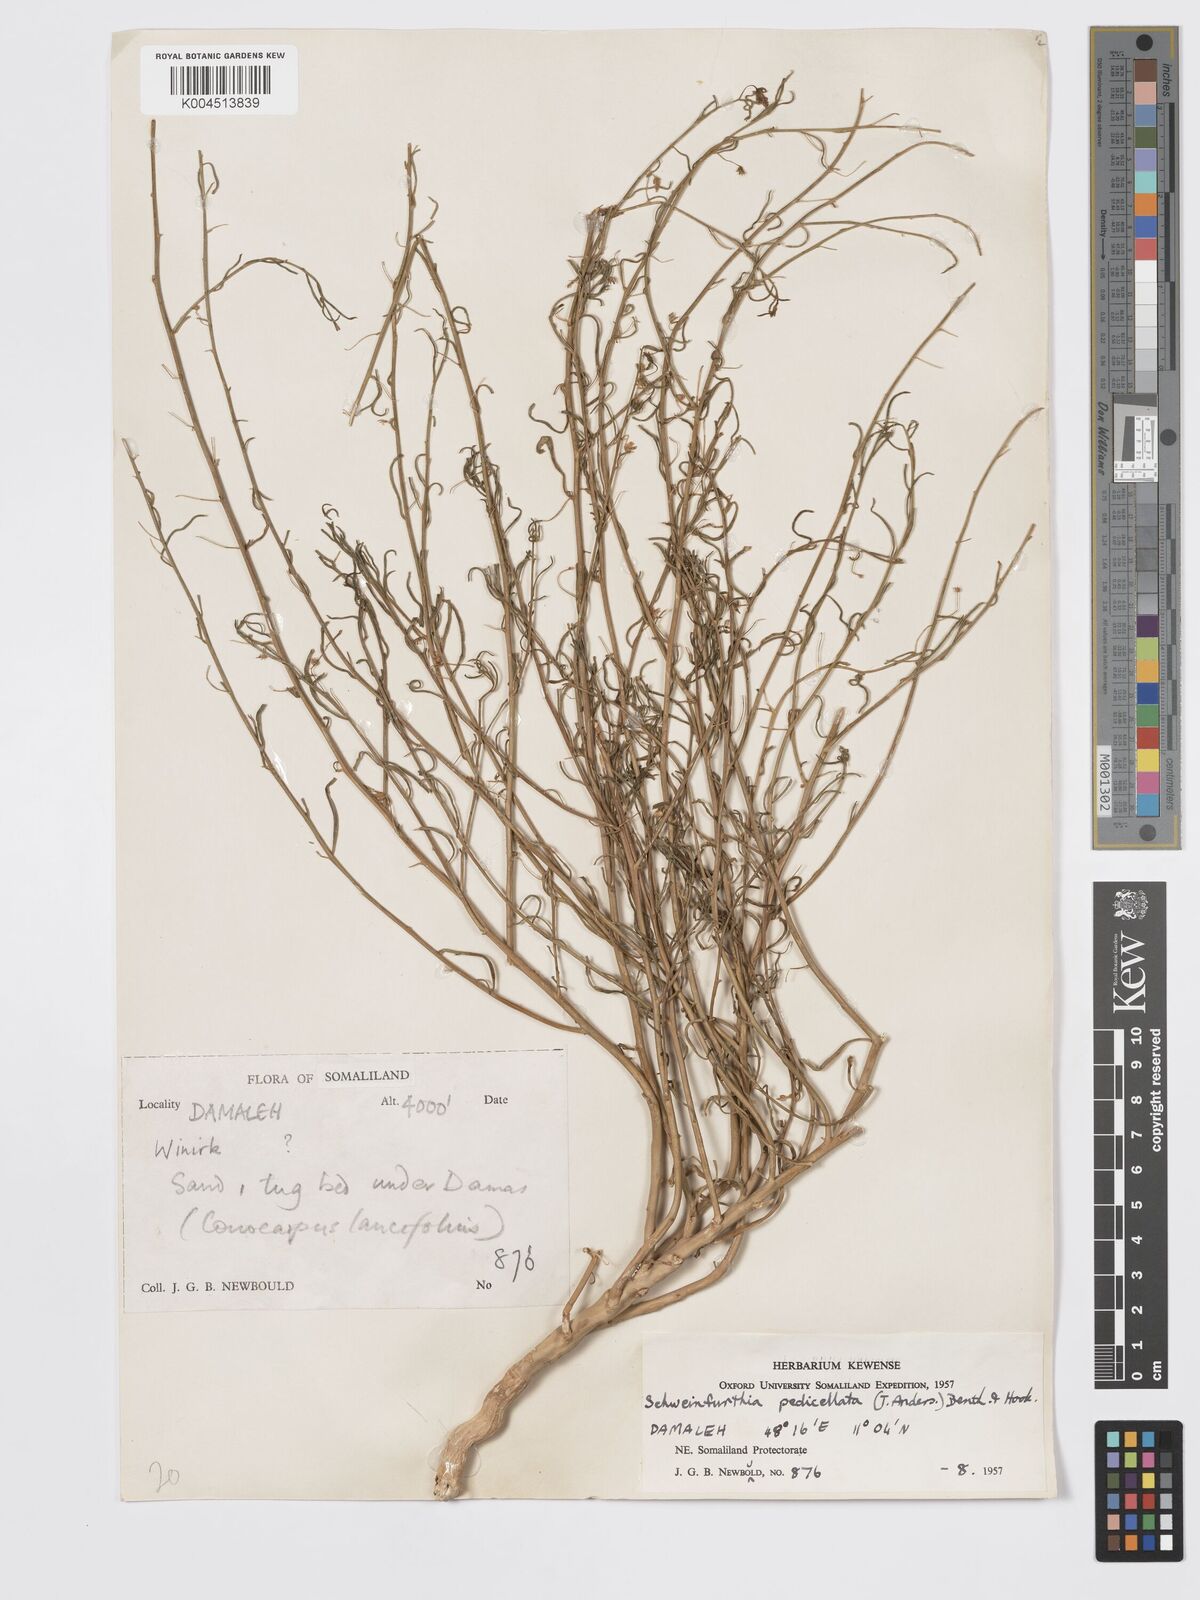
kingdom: Plantae
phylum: Tracheophyta
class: Magnoliopsida
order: Lamiales
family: Plantaginaceae
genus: Schweinfurthia
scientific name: Schweinfurthia pedicellata
